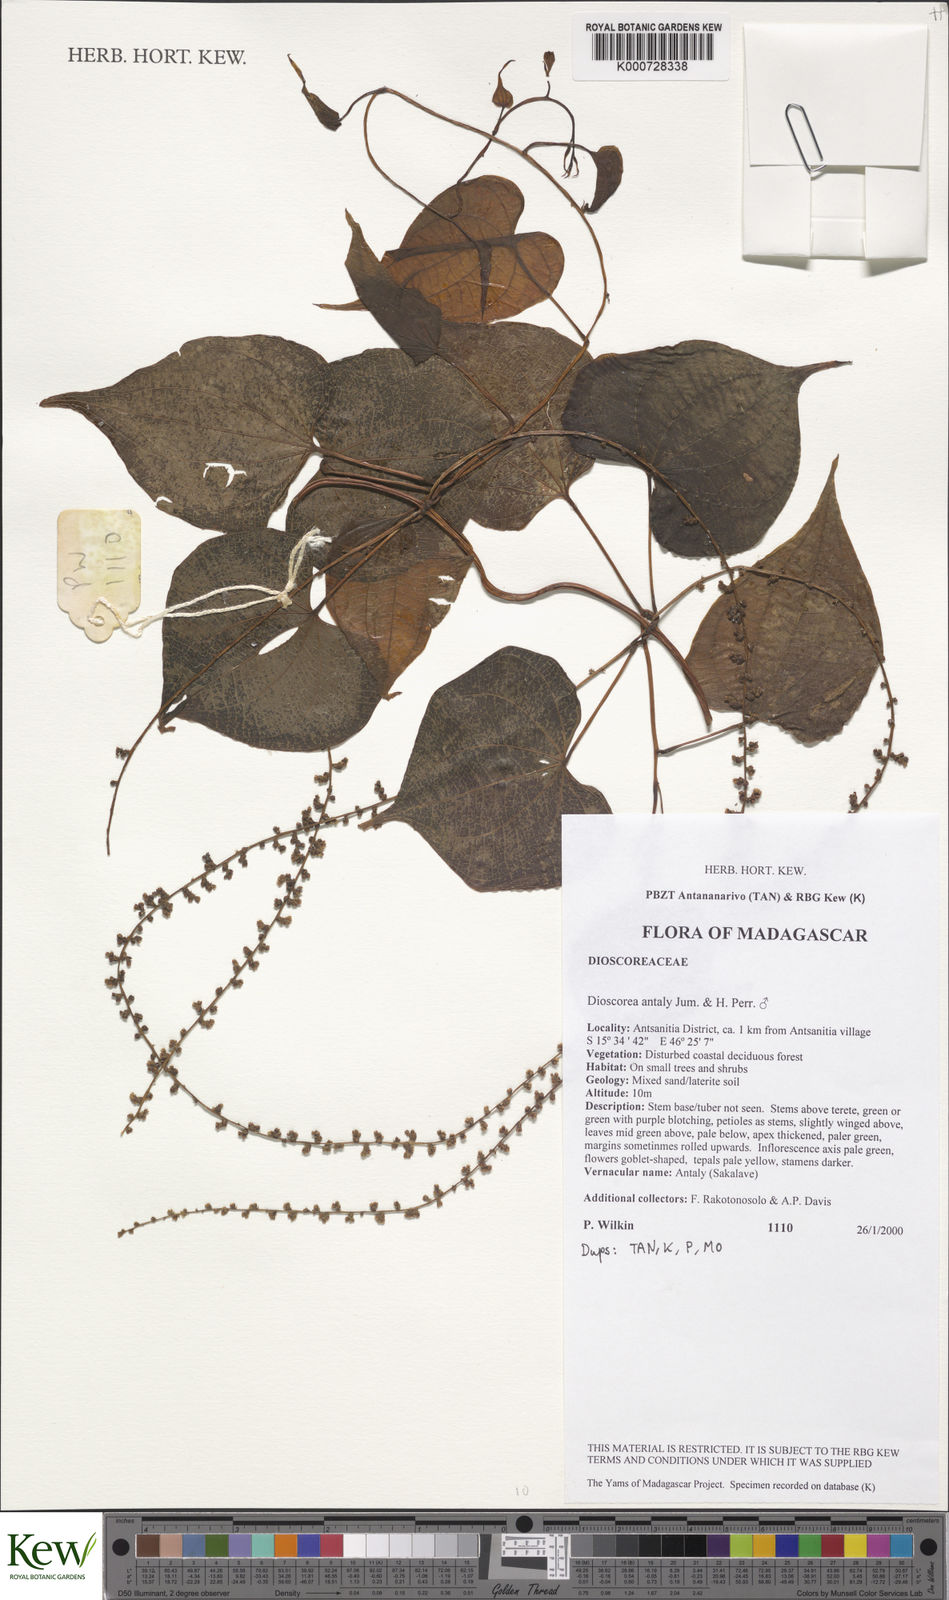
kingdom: Plantae
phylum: Tracheophyta
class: Liliopsida
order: Dioscoreales
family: Dioscoreaceae
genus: Dioscorea
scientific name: Dioscorea antaly
